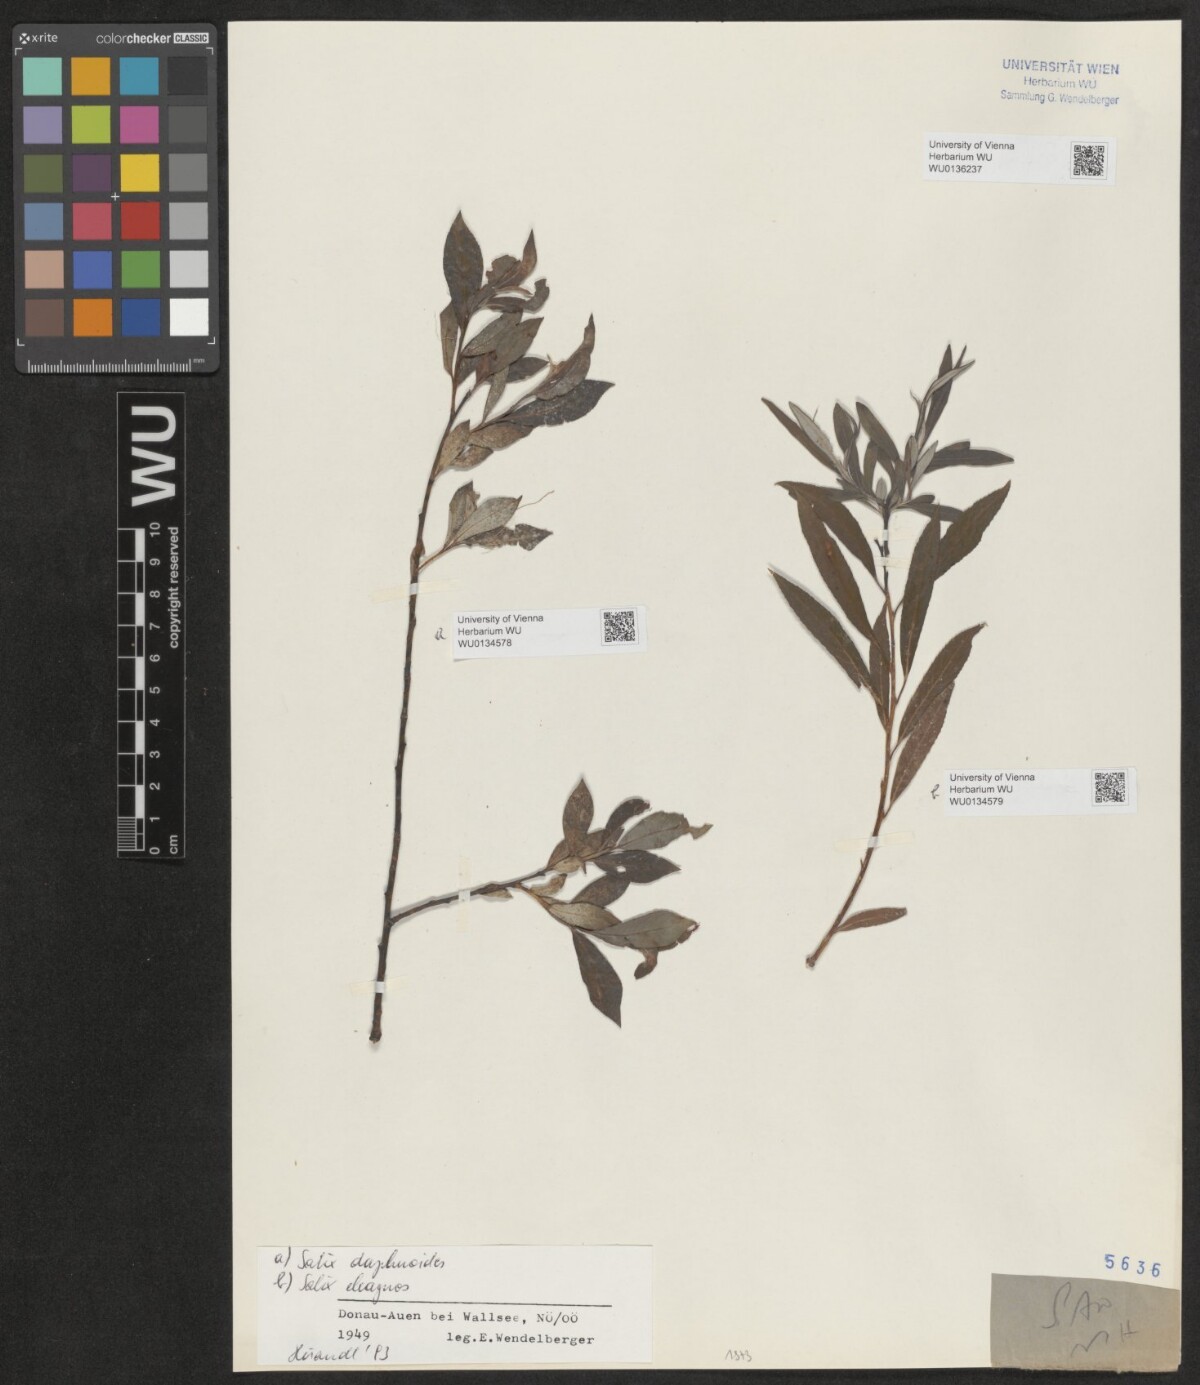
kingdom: Plantae
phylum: Tracheophyta
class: Magnoliopsida
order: Malpighiales
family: Salicaceae
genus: Salix
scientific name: Salix daphnoides
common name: European violet-willow
